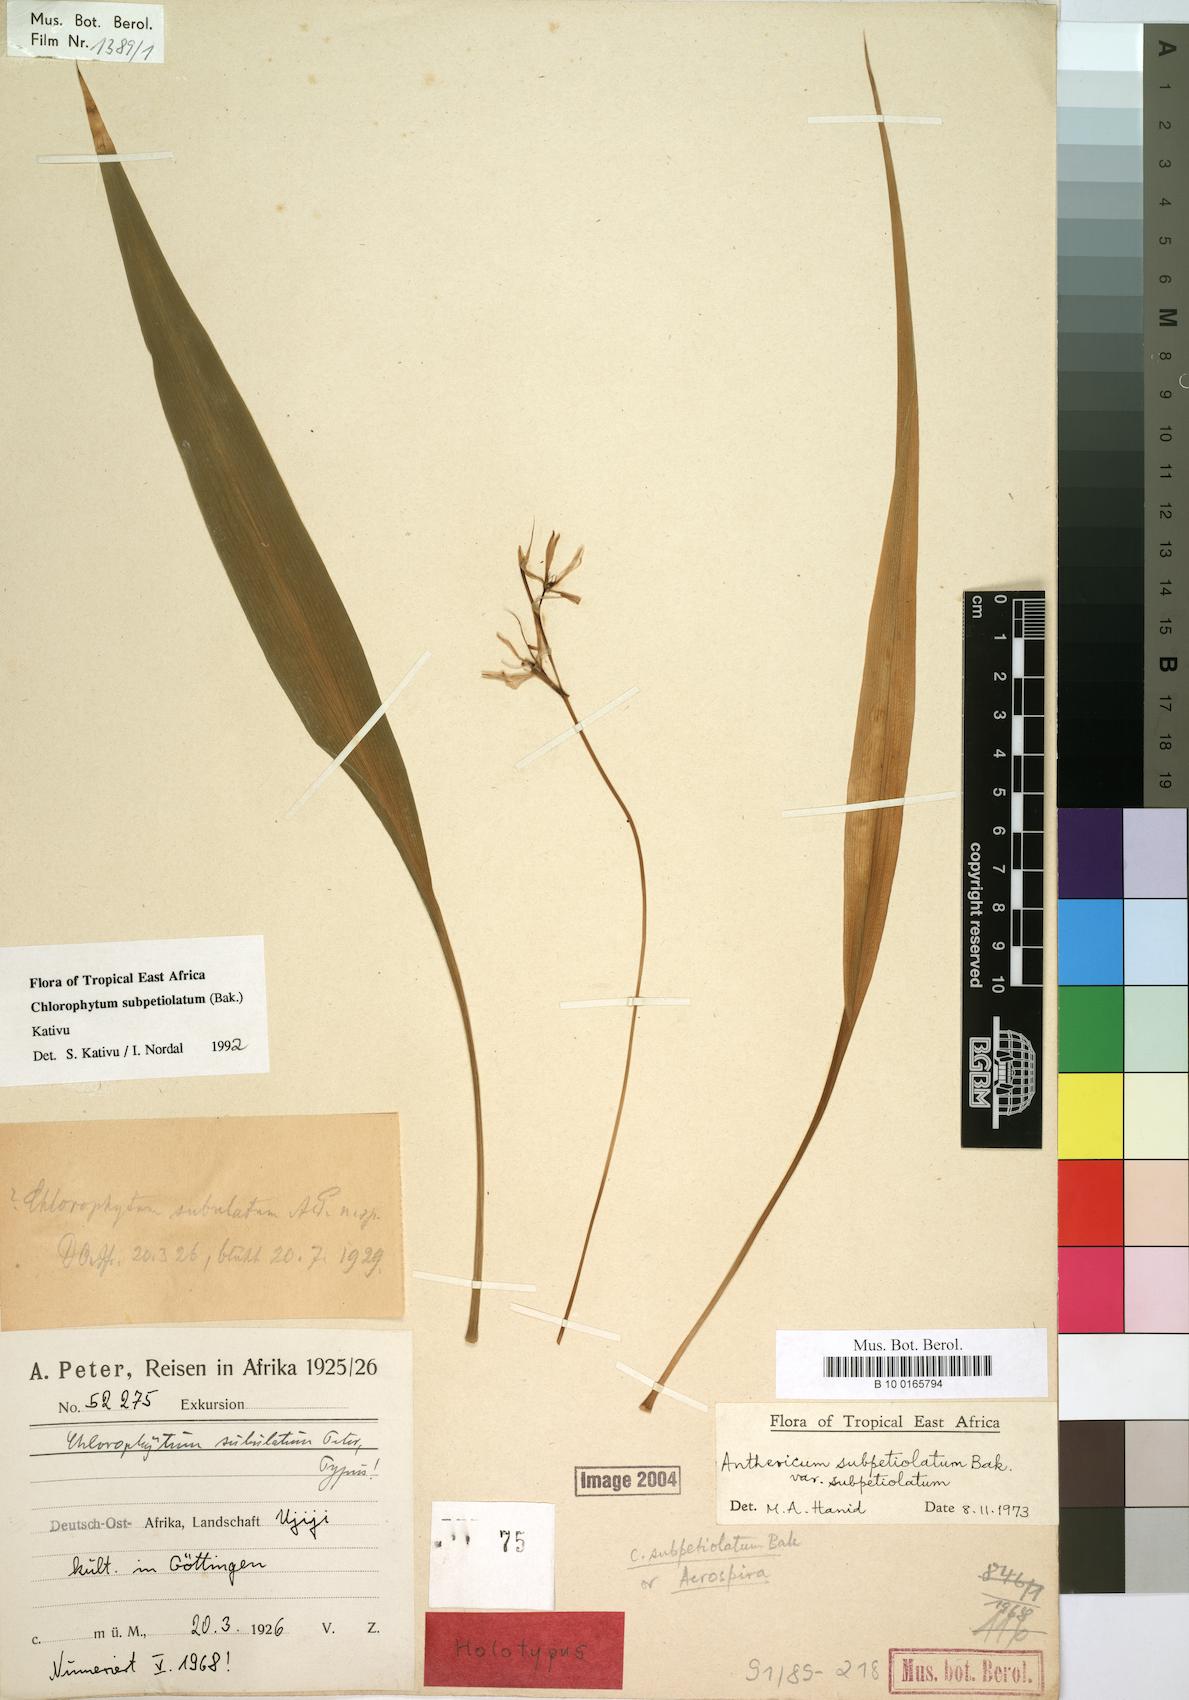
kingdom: Plantae
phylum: Tracheophyta
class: Liliopsida
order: Asparagales
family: Asparagaceae
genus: Chlorophytum
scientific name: Chlorophytum subpetiolatum
